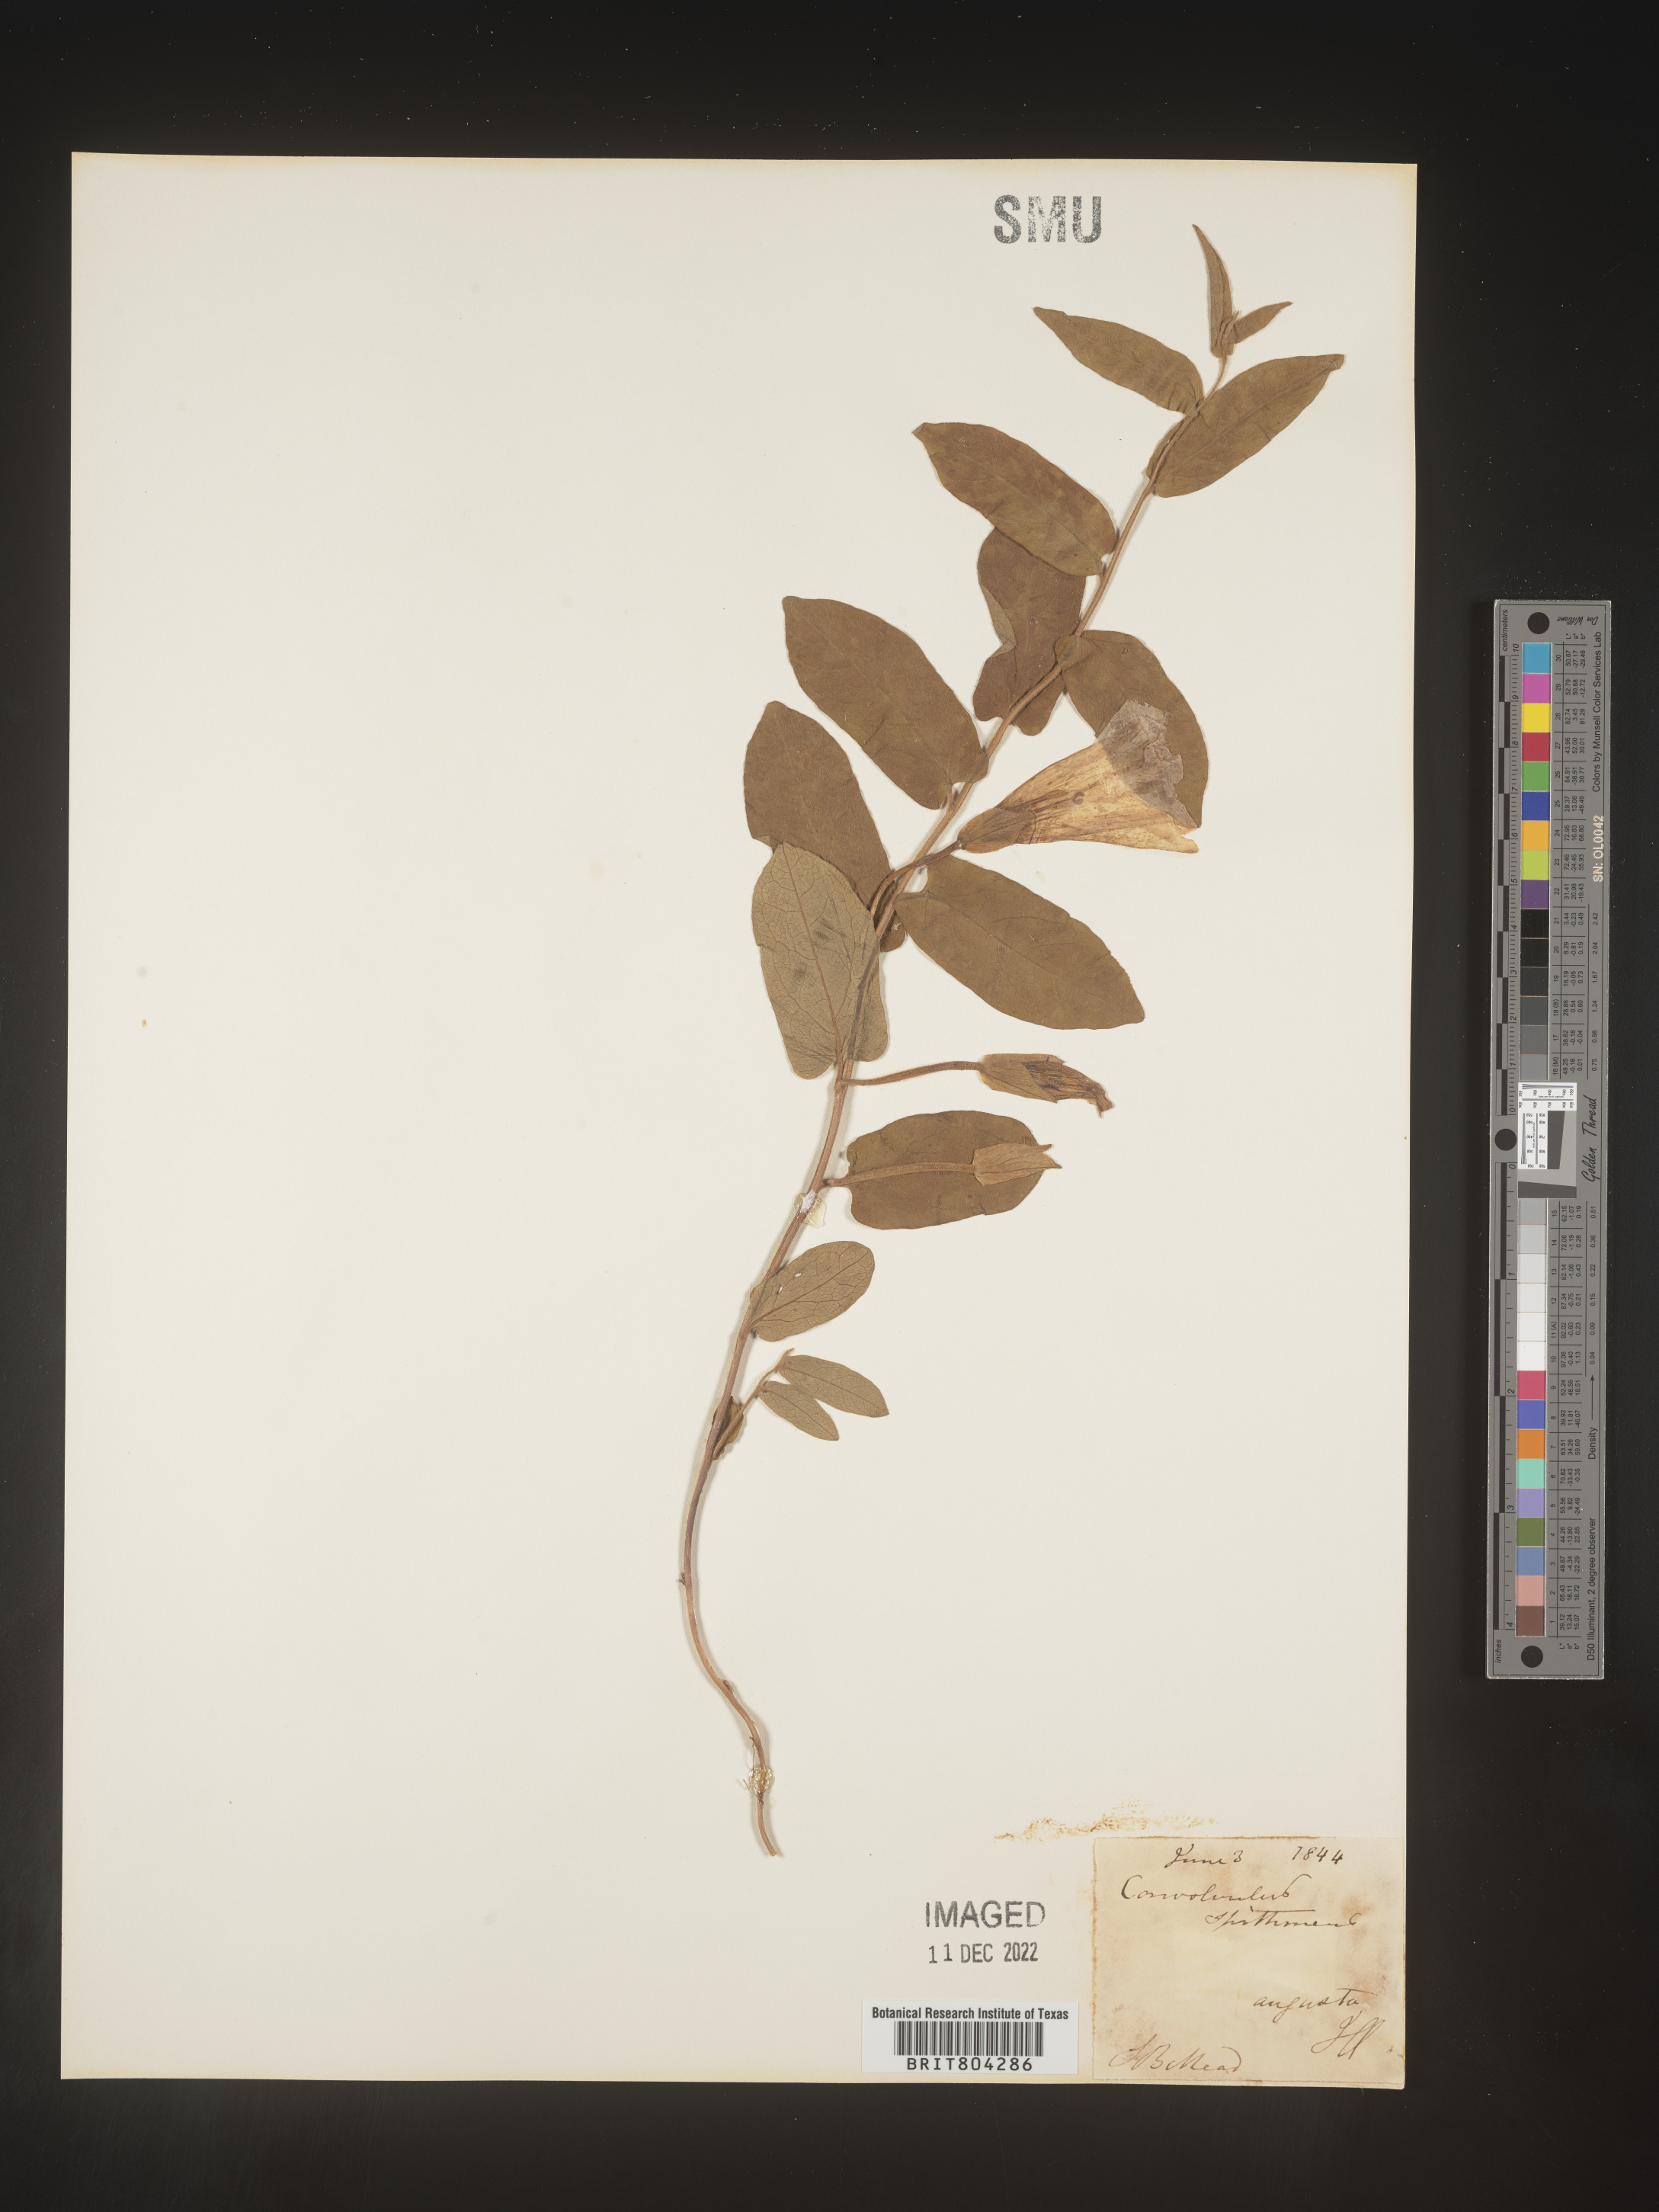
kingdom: Plantae
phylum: Tracheophyta
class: Magnoliopsida
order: Solanales
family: Convolvulaceae
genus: Calystegia
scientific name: Calystegia
